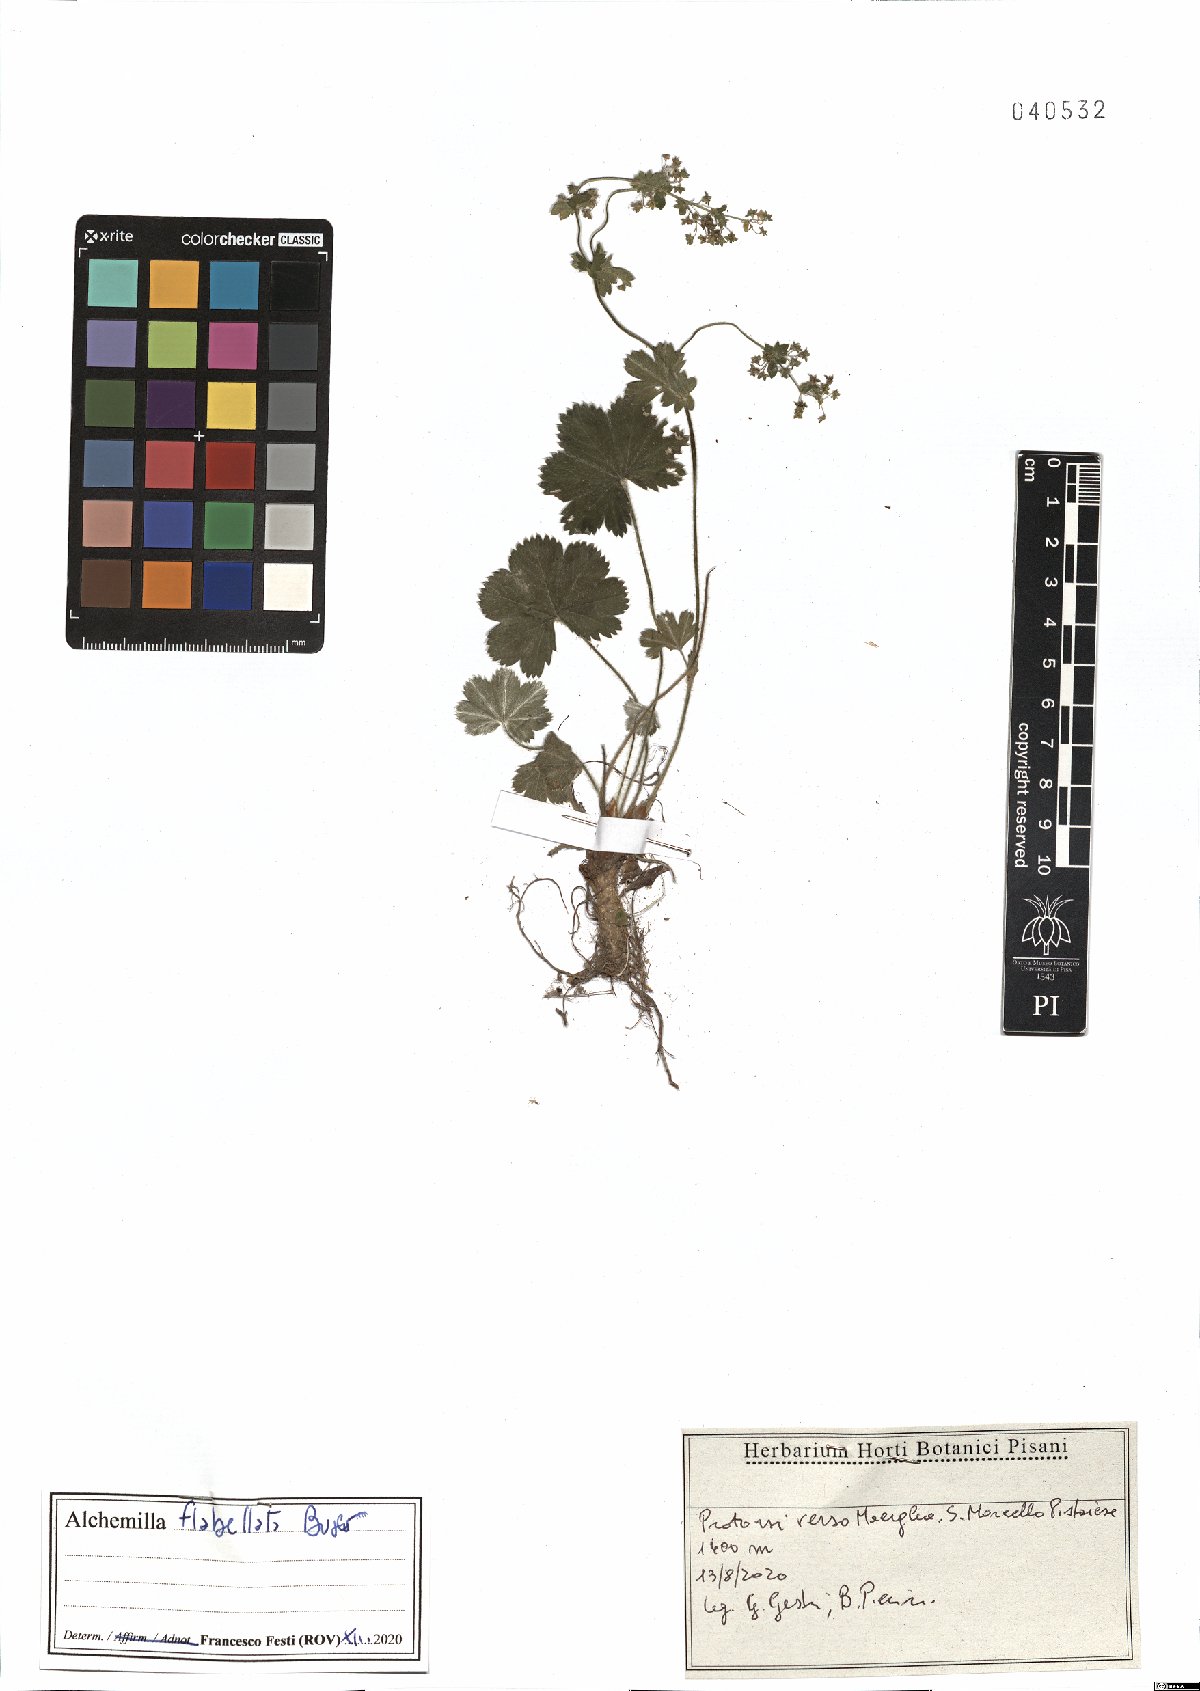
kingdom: Plantae
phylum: Tracheophyta
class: Magnoliopsida
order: Rosales
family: Rosaceae
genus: Alchemilla
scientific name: Alchemilla flabellata
